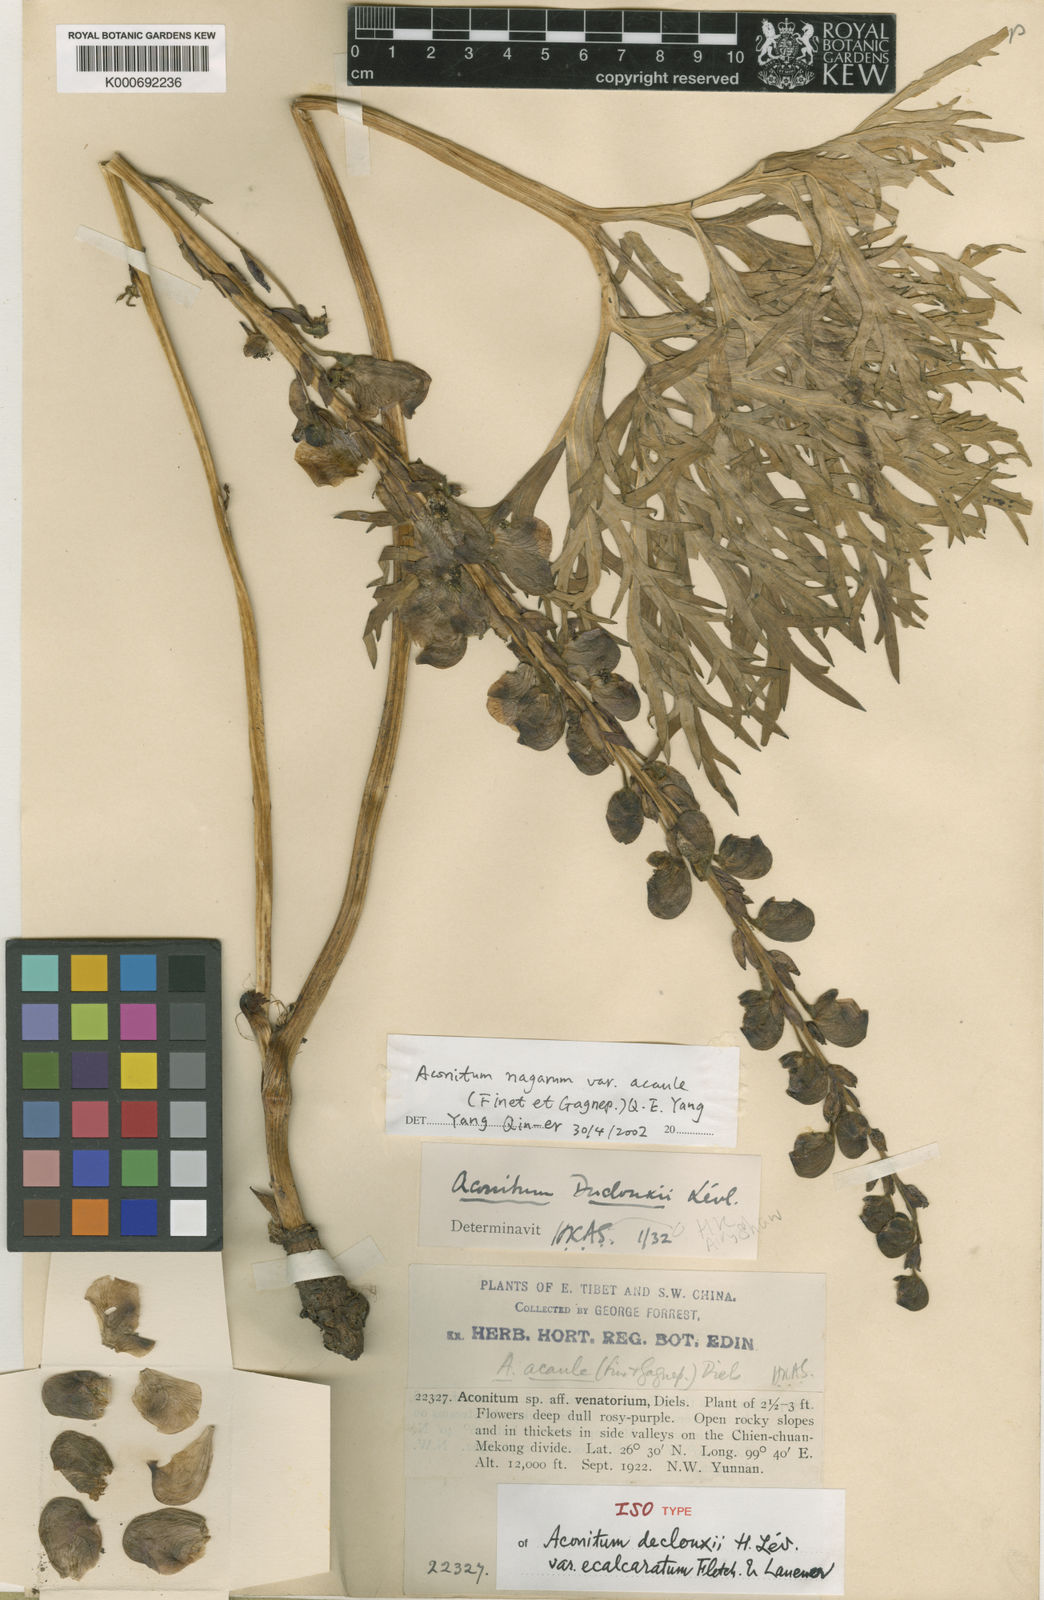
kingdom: Plantae
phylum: Tracheophyta
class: Magnoliopsida
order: Ranunculales
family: Ranunculaceae
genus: Aconitum
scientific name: Aconitum
